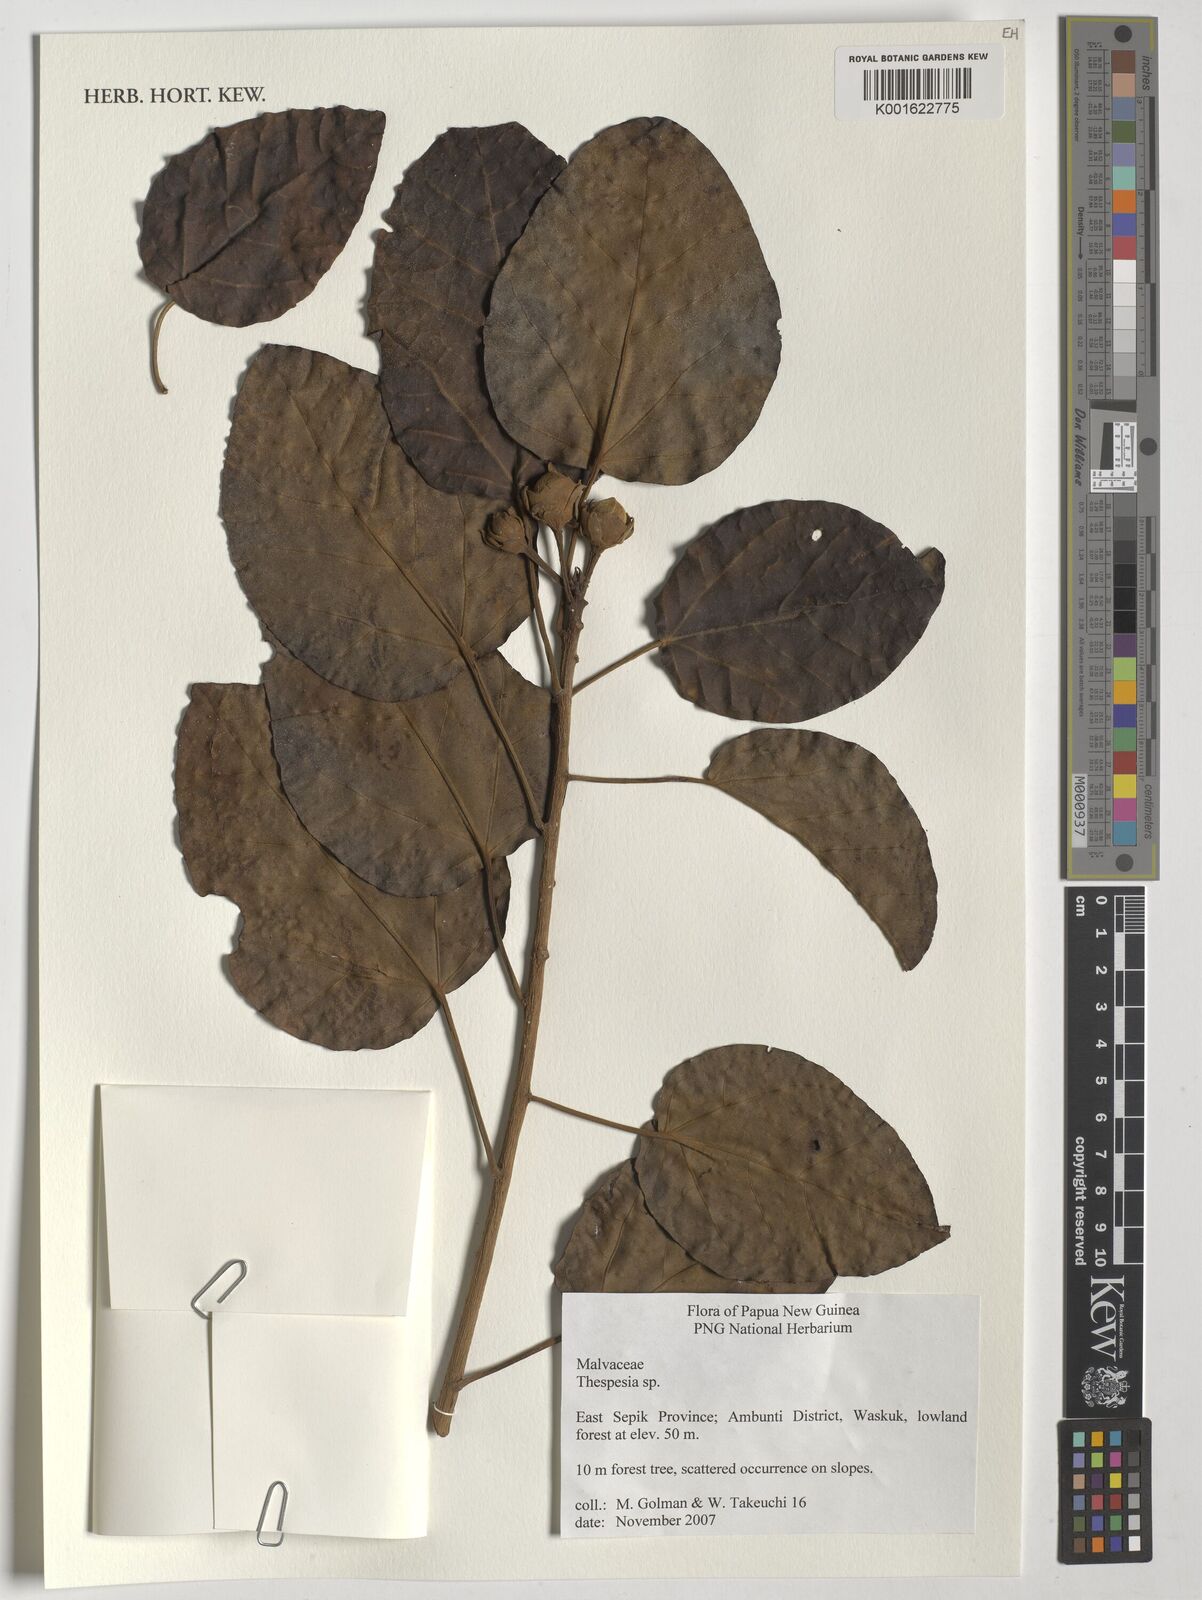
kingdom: Plantae
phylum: Tracheophyta
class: Magnoliopsida
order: Malvales
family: Malvaceae
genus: Thespesia
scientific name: Thespesia
